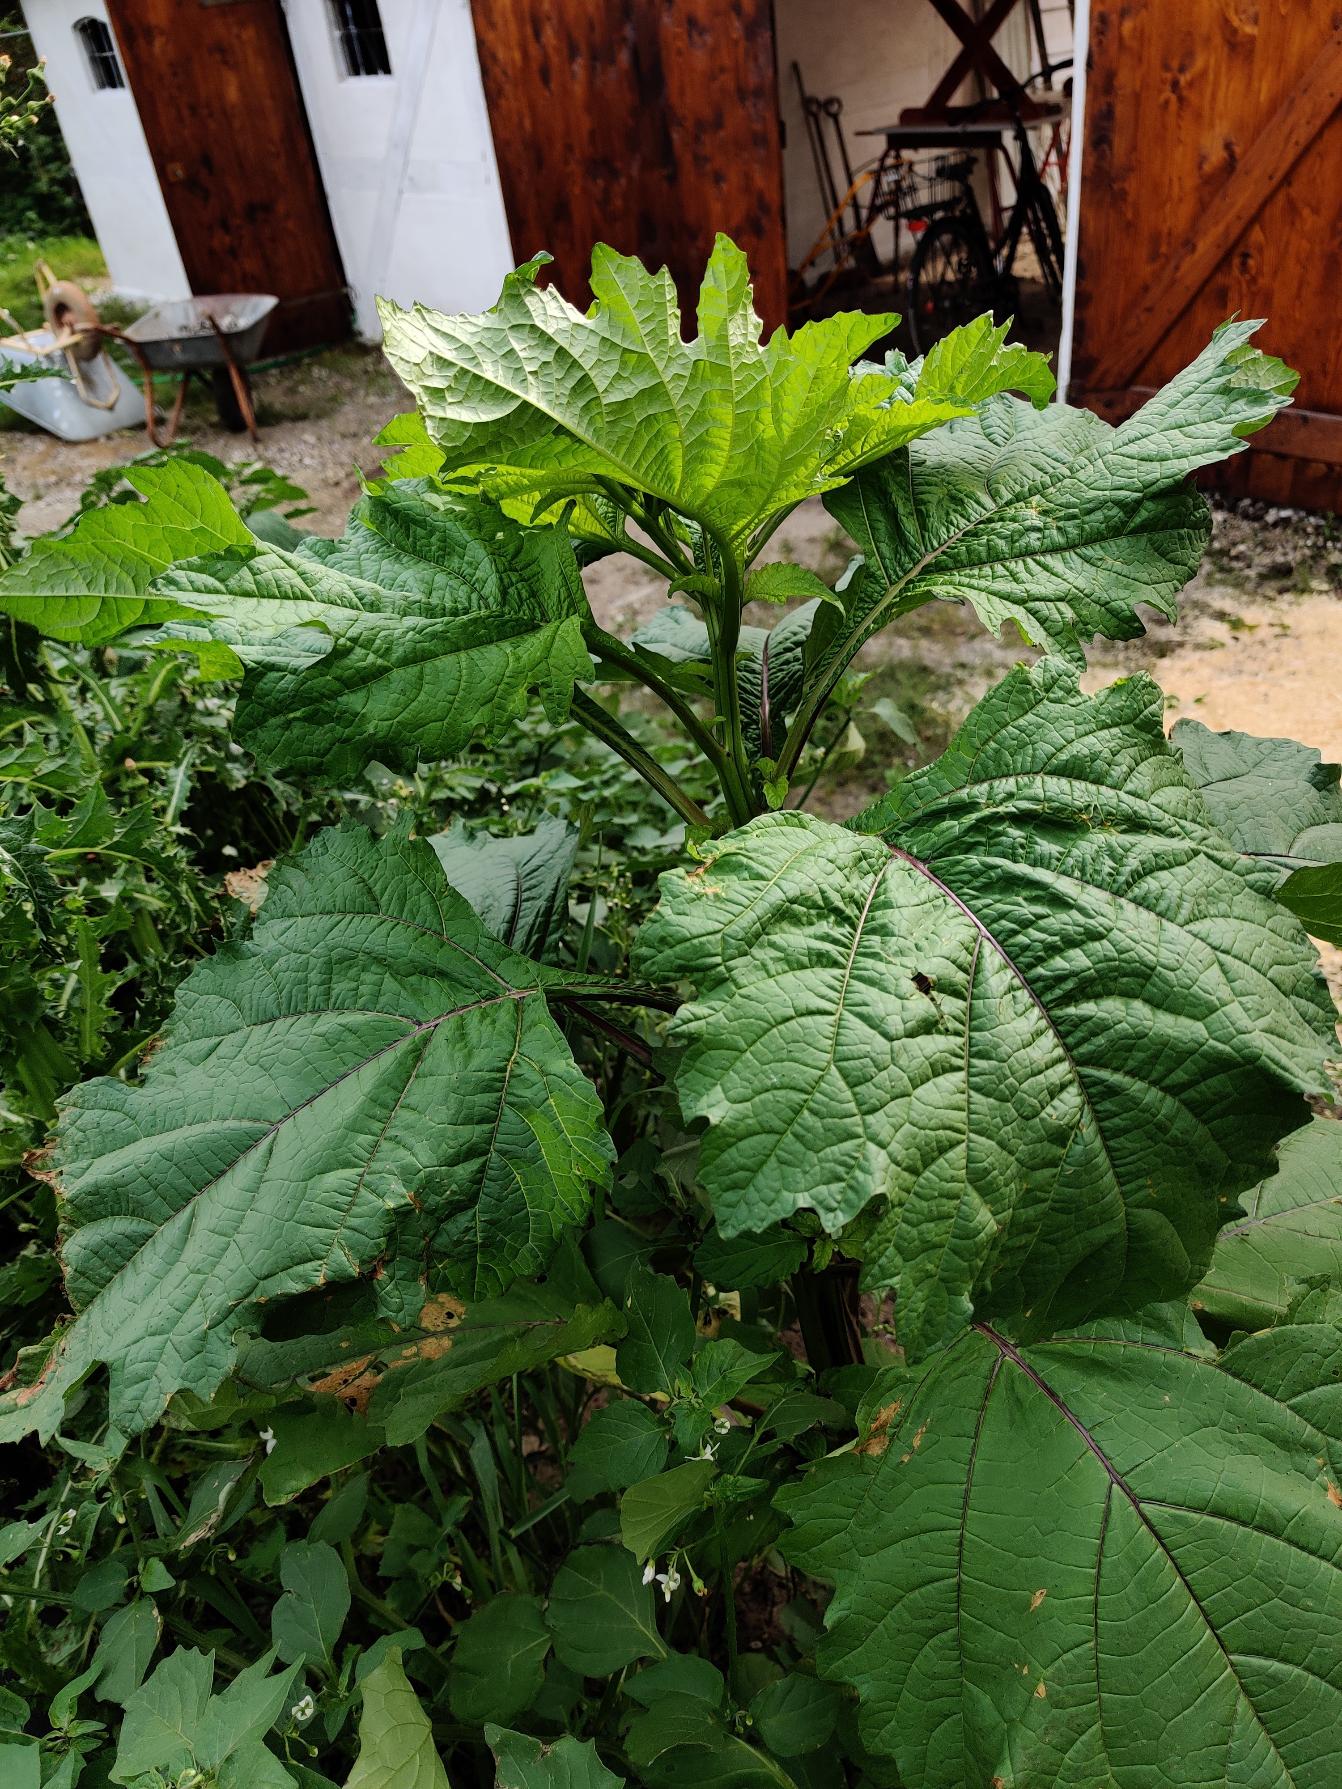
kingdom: Plantae
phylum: Tracheophyta
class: Magnoliopsida
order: Solanales
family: Solanaceae
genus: Nicandra
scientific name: Nicandra physalodes
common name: Kantbæger
